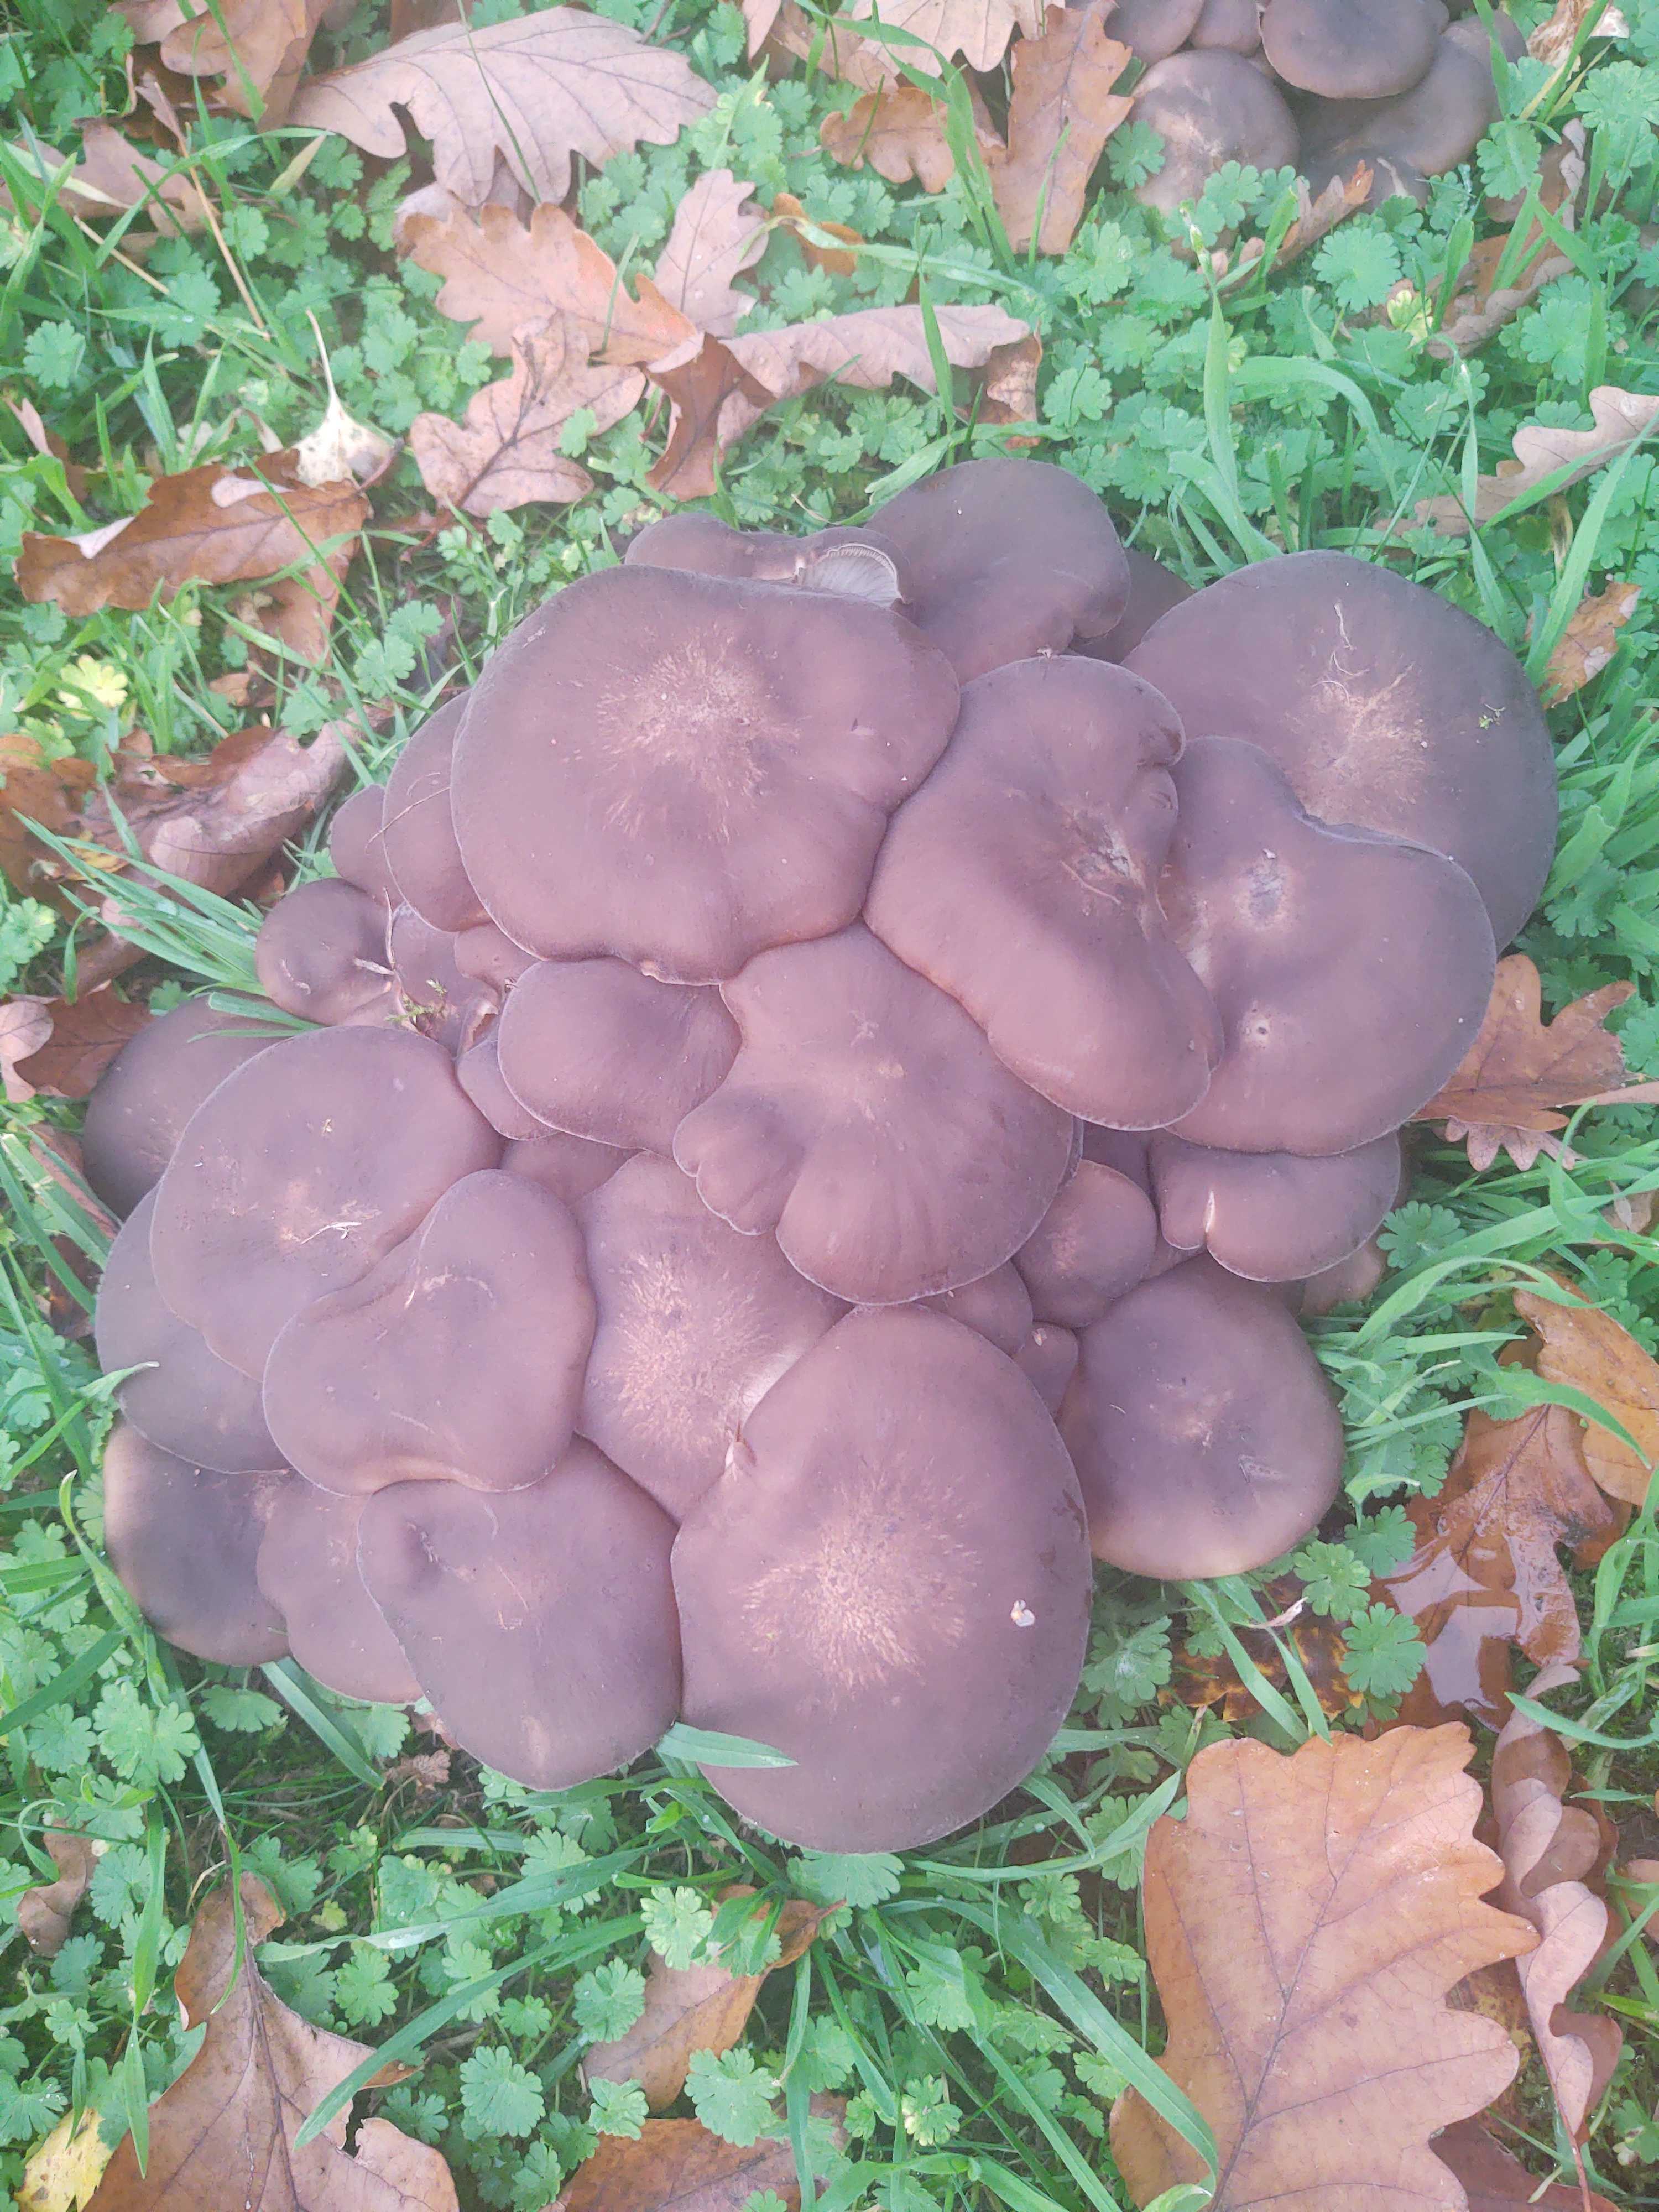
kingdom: Fungi
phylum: Basidiomycota
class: Agaricomycetes
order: Agaricales
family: Lyophyllaceae
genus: Lyophyllum
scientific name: Lyophyllum decastes
